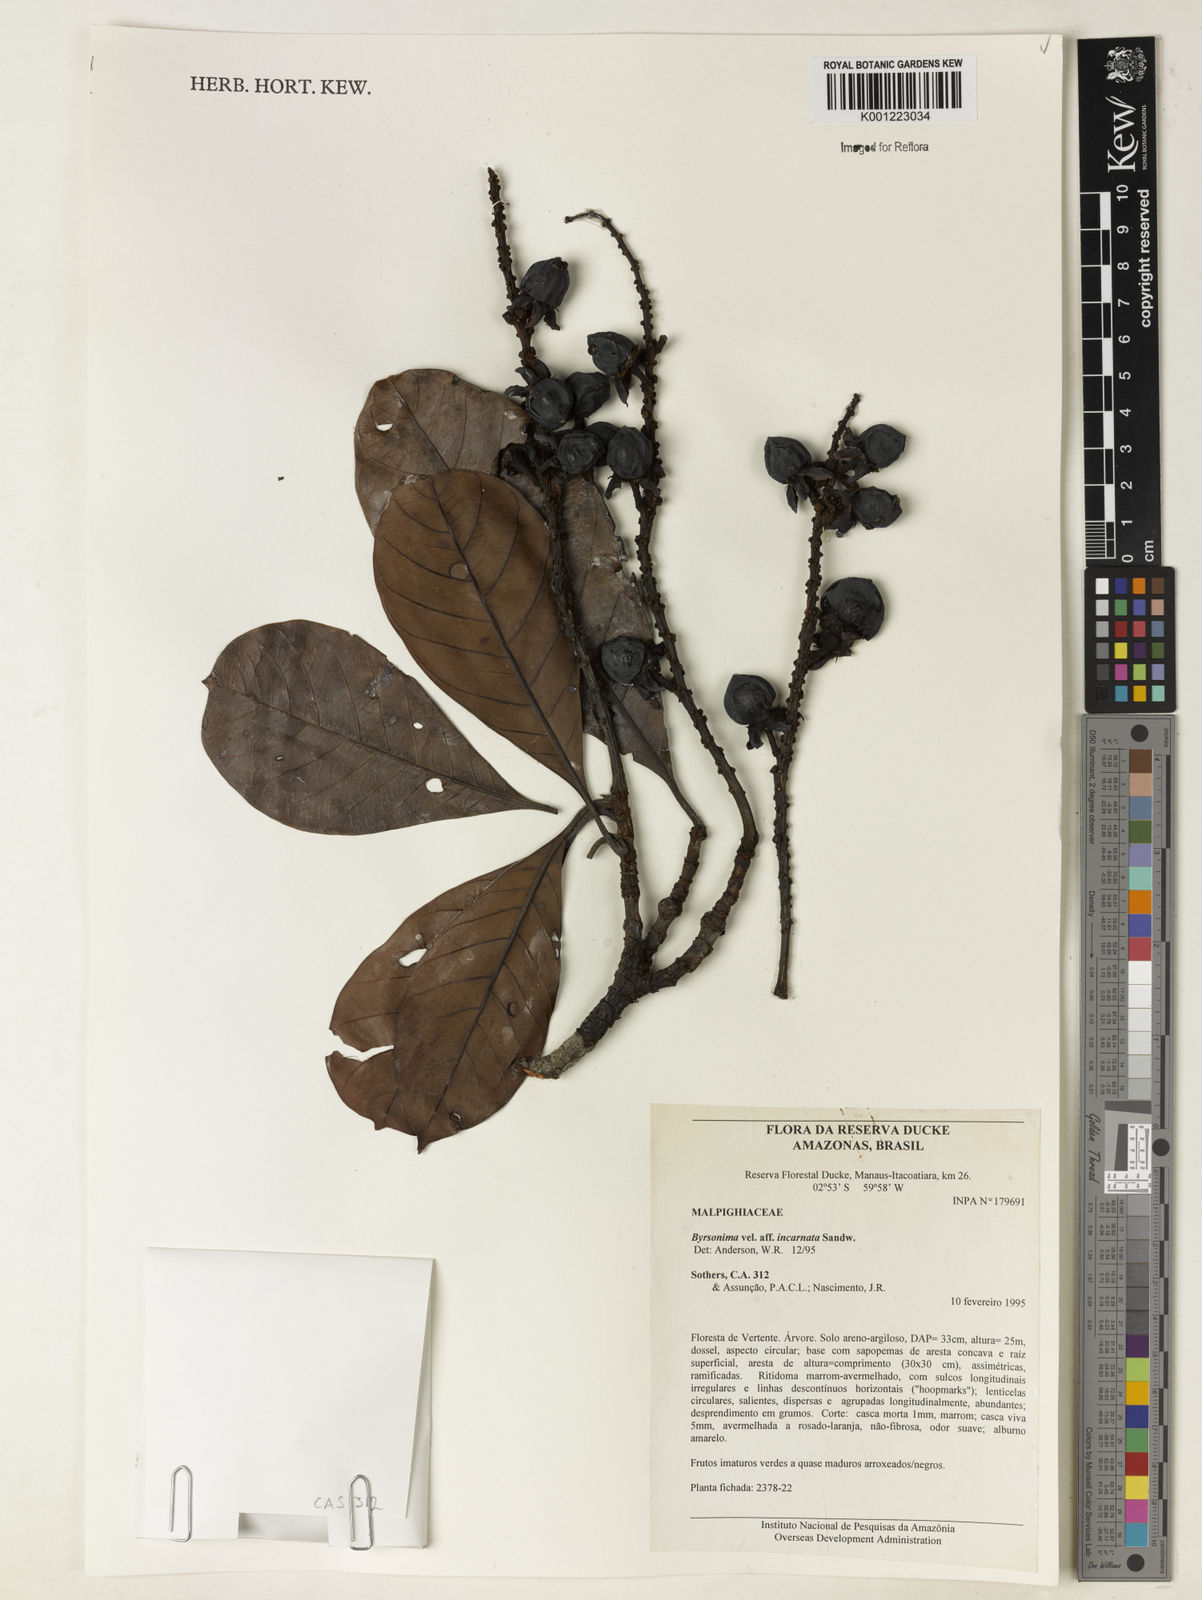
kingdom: Plantae
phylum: Tracheophyta
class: Magnoliopsida
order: Malpighiales
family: Malpighiaceae
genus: Byrsonima
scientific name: Byrsonima incarnata
